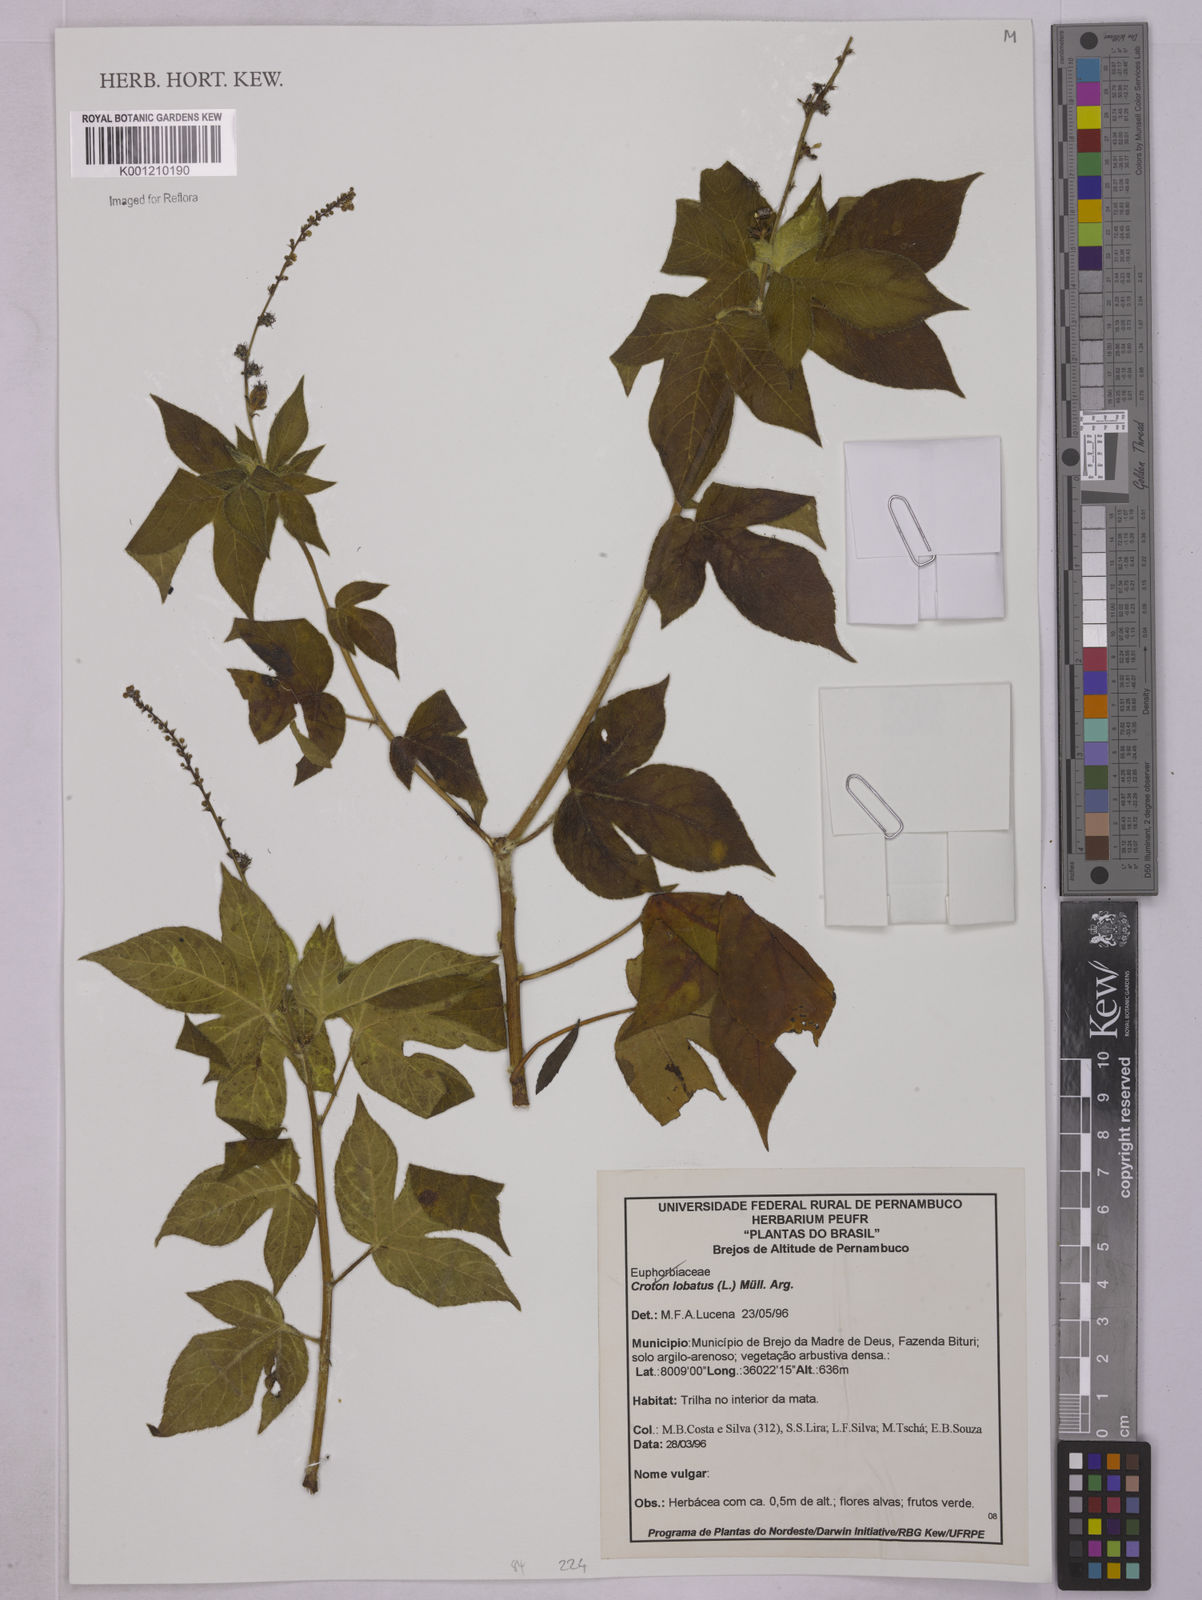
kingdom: Plantae
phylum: Tracheophyta
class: Magnoliopsida
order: Malpighiales
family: Euphorbiaceae
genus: Astraea
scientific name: Astraea lobata
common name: Lobed croton
